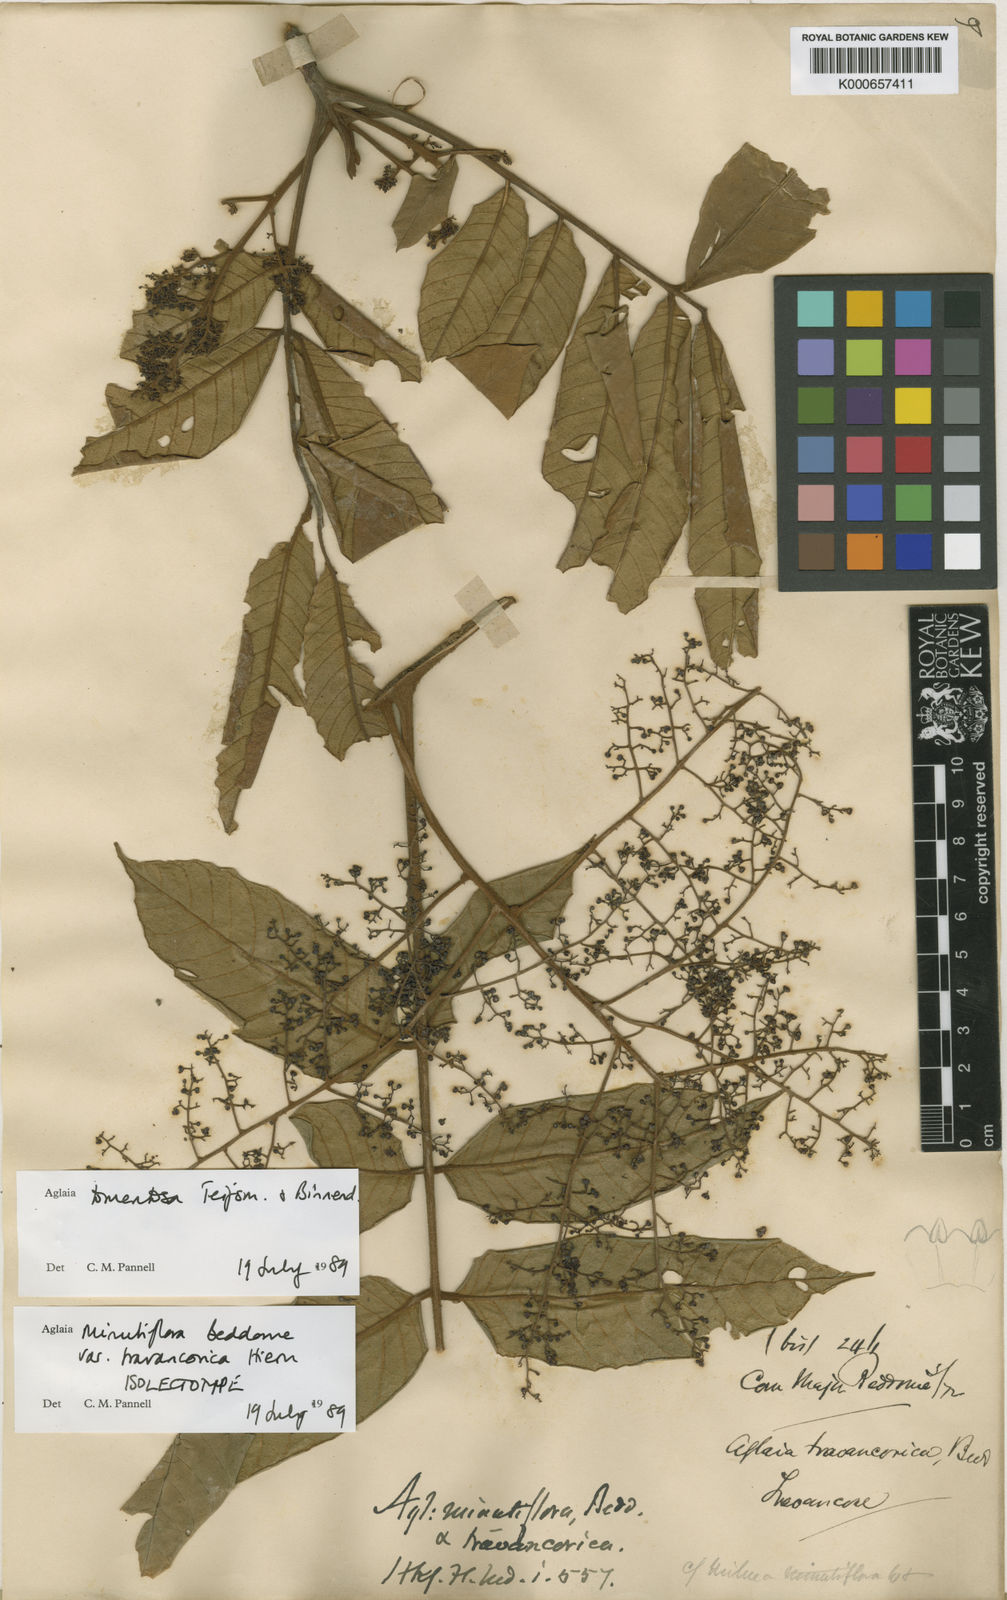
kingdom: Plantae
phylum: Tracheophyta
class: Magnoliopsida
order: Sapindales
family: Meliaceae
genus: Aglaia
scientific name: Aglaia tomentosa
